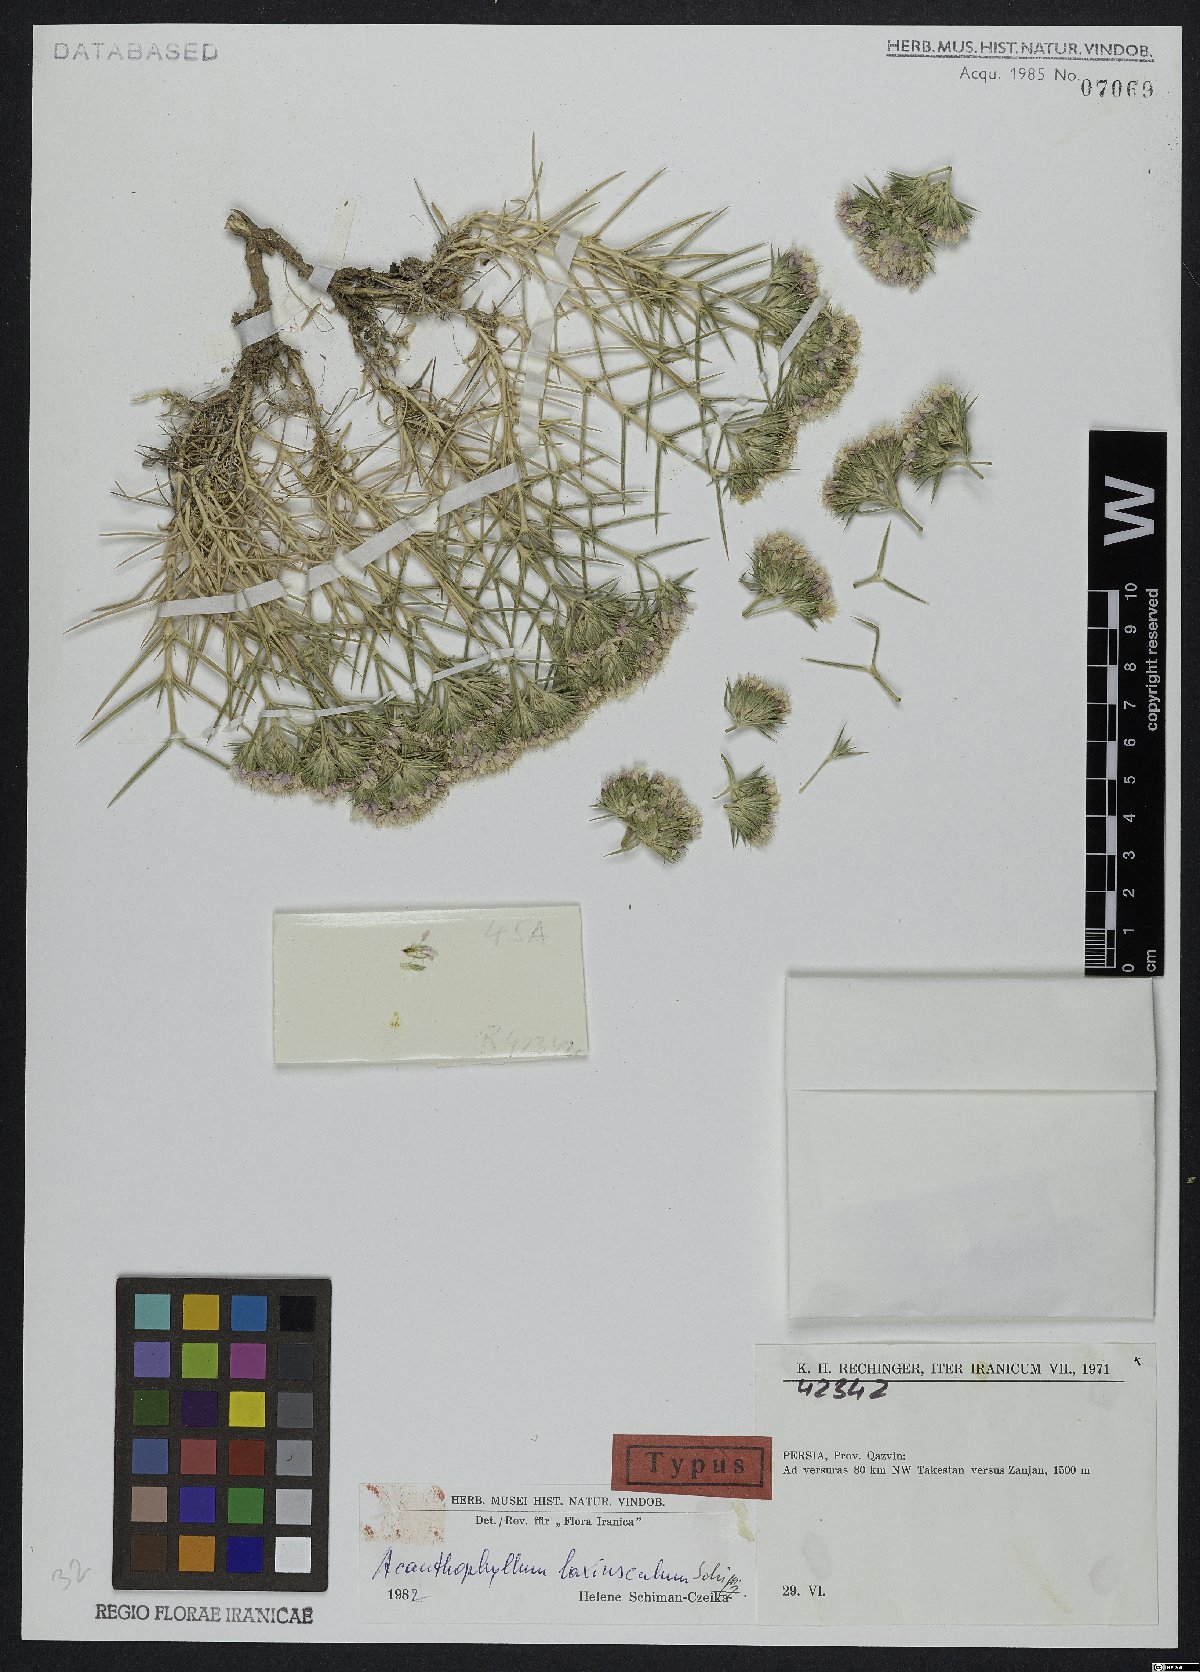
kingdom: Plantae
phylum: Tracheophyta
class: Magnoliopsida
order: Caryophyllales
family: Caryophyllaceae
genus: Acanthophyllum
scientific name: Acanthophyllum laxiusculum
